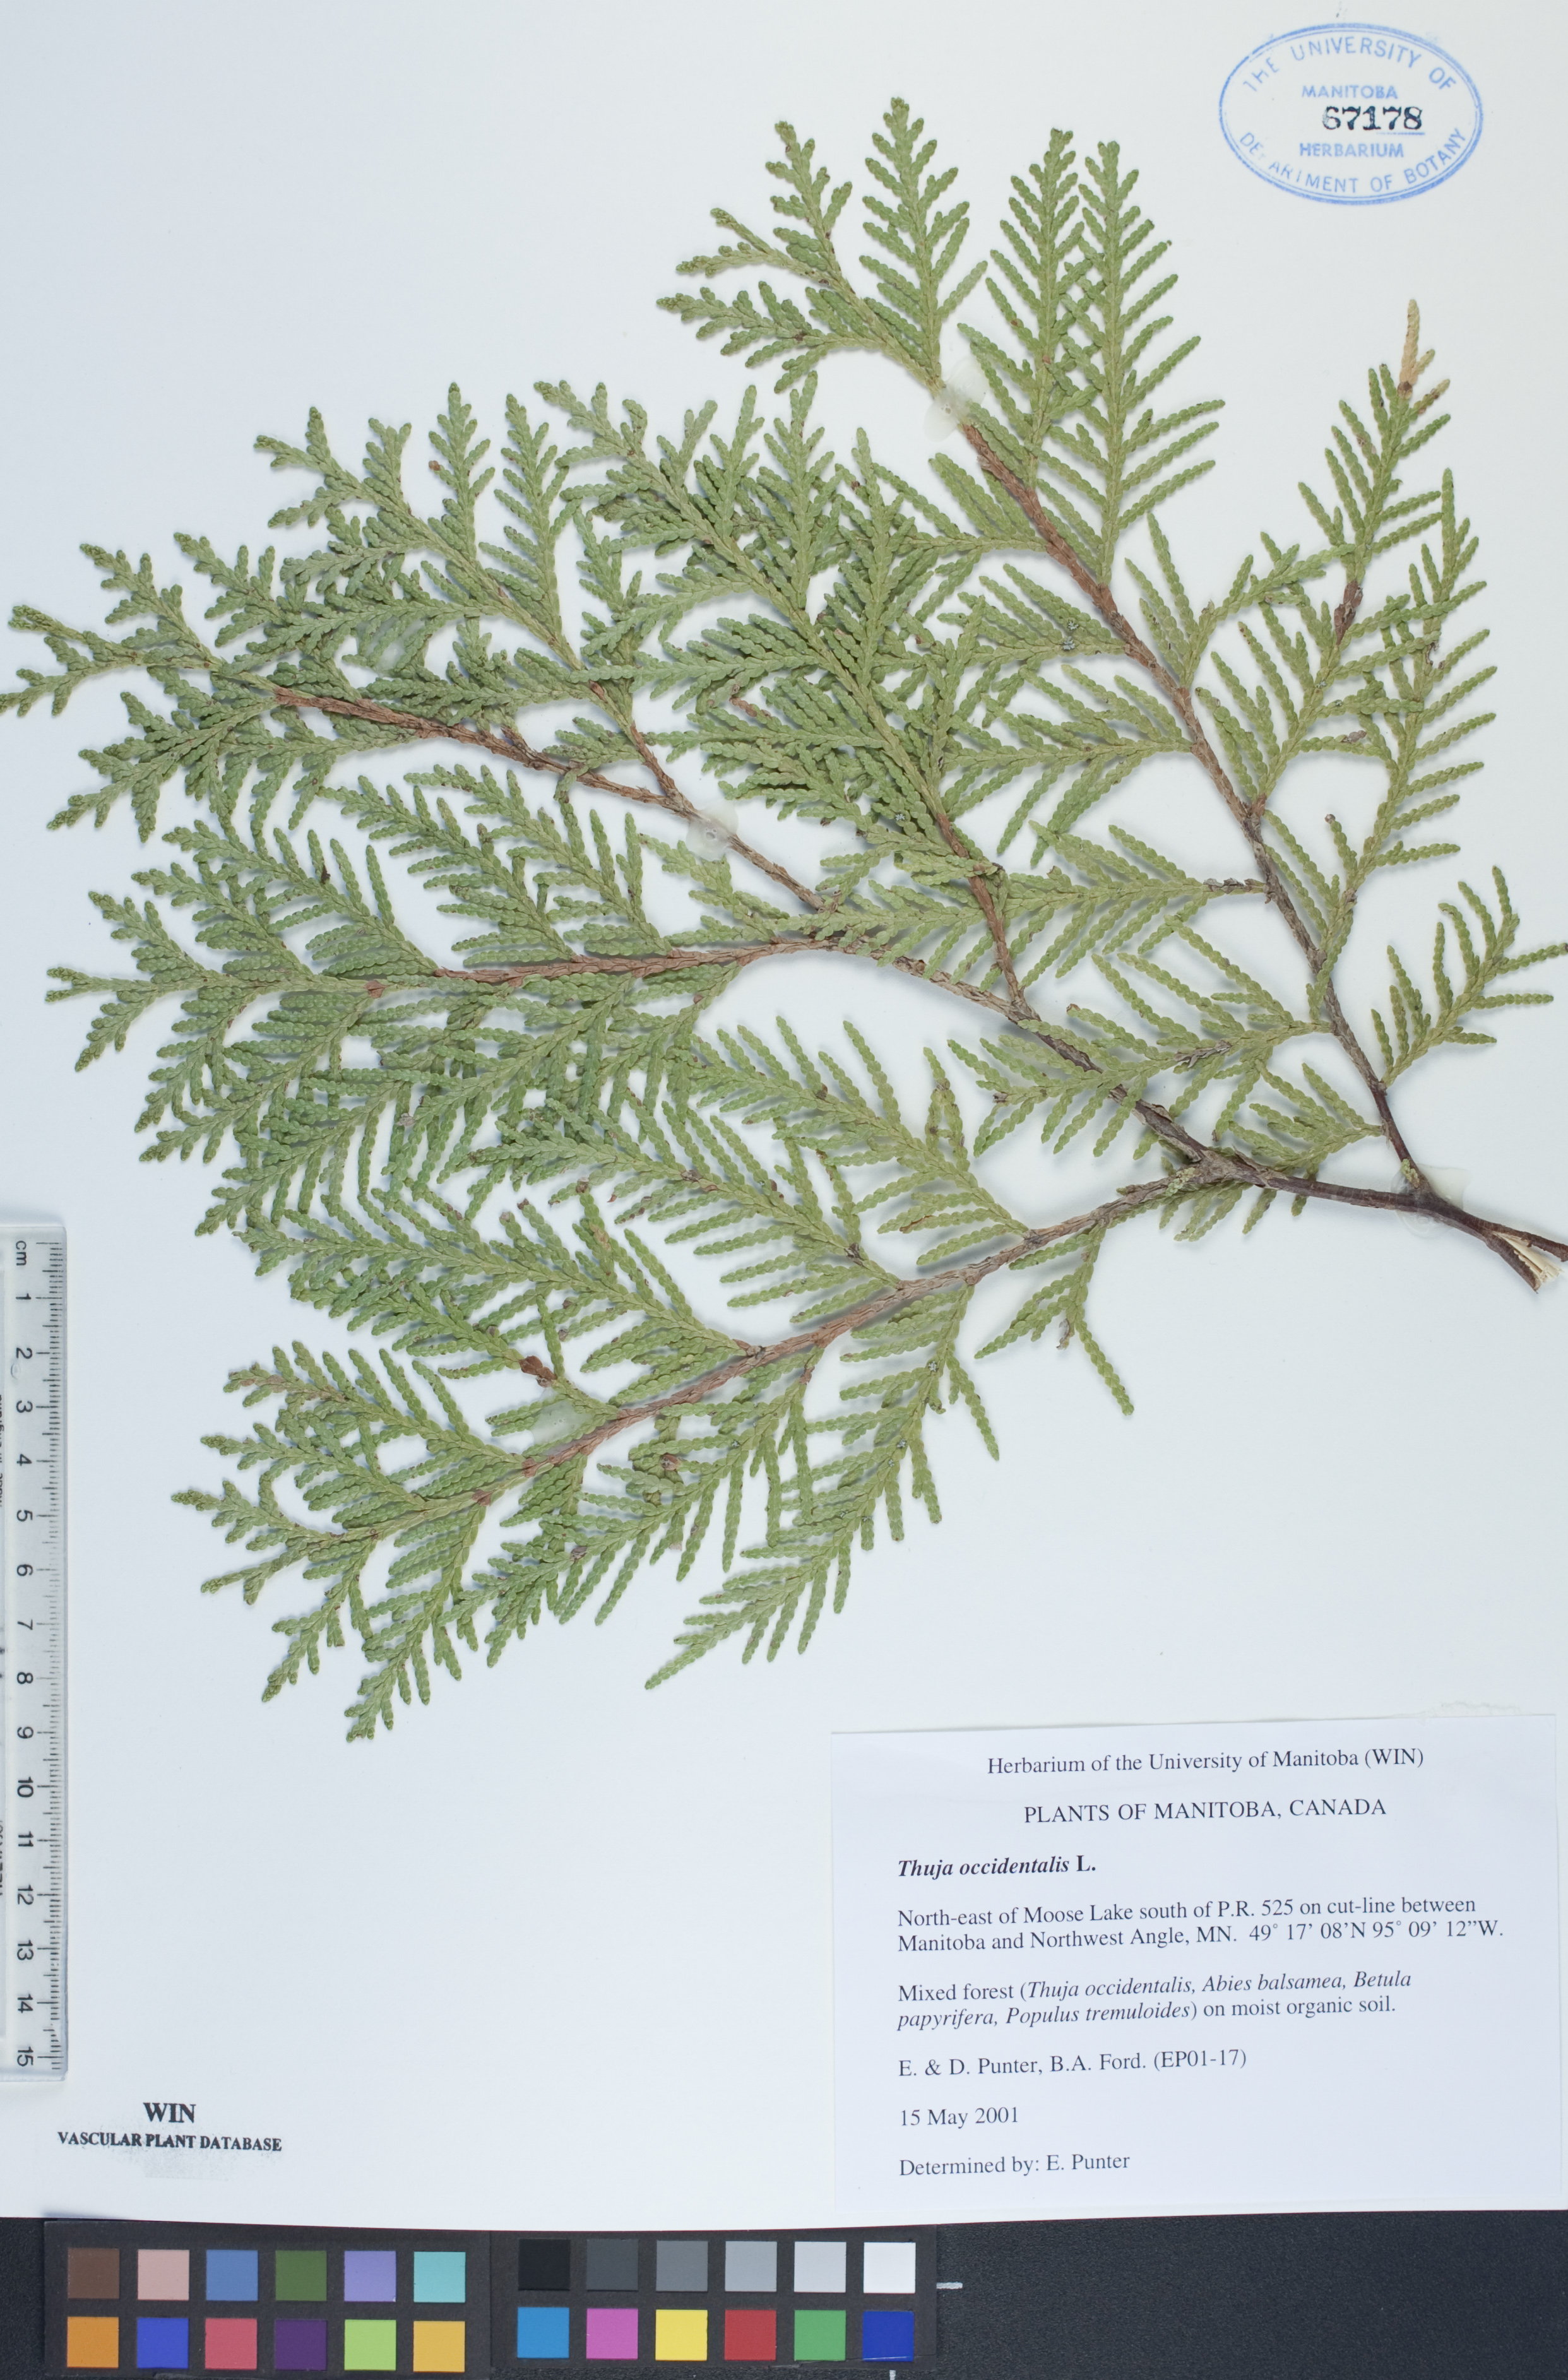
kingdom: Plantae
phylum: Tracheophyta
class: Pinopsida
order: Pinales
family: Cupressaceae
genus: Thuja
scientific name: Thuja occidentalis
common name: Northern white-cedar
